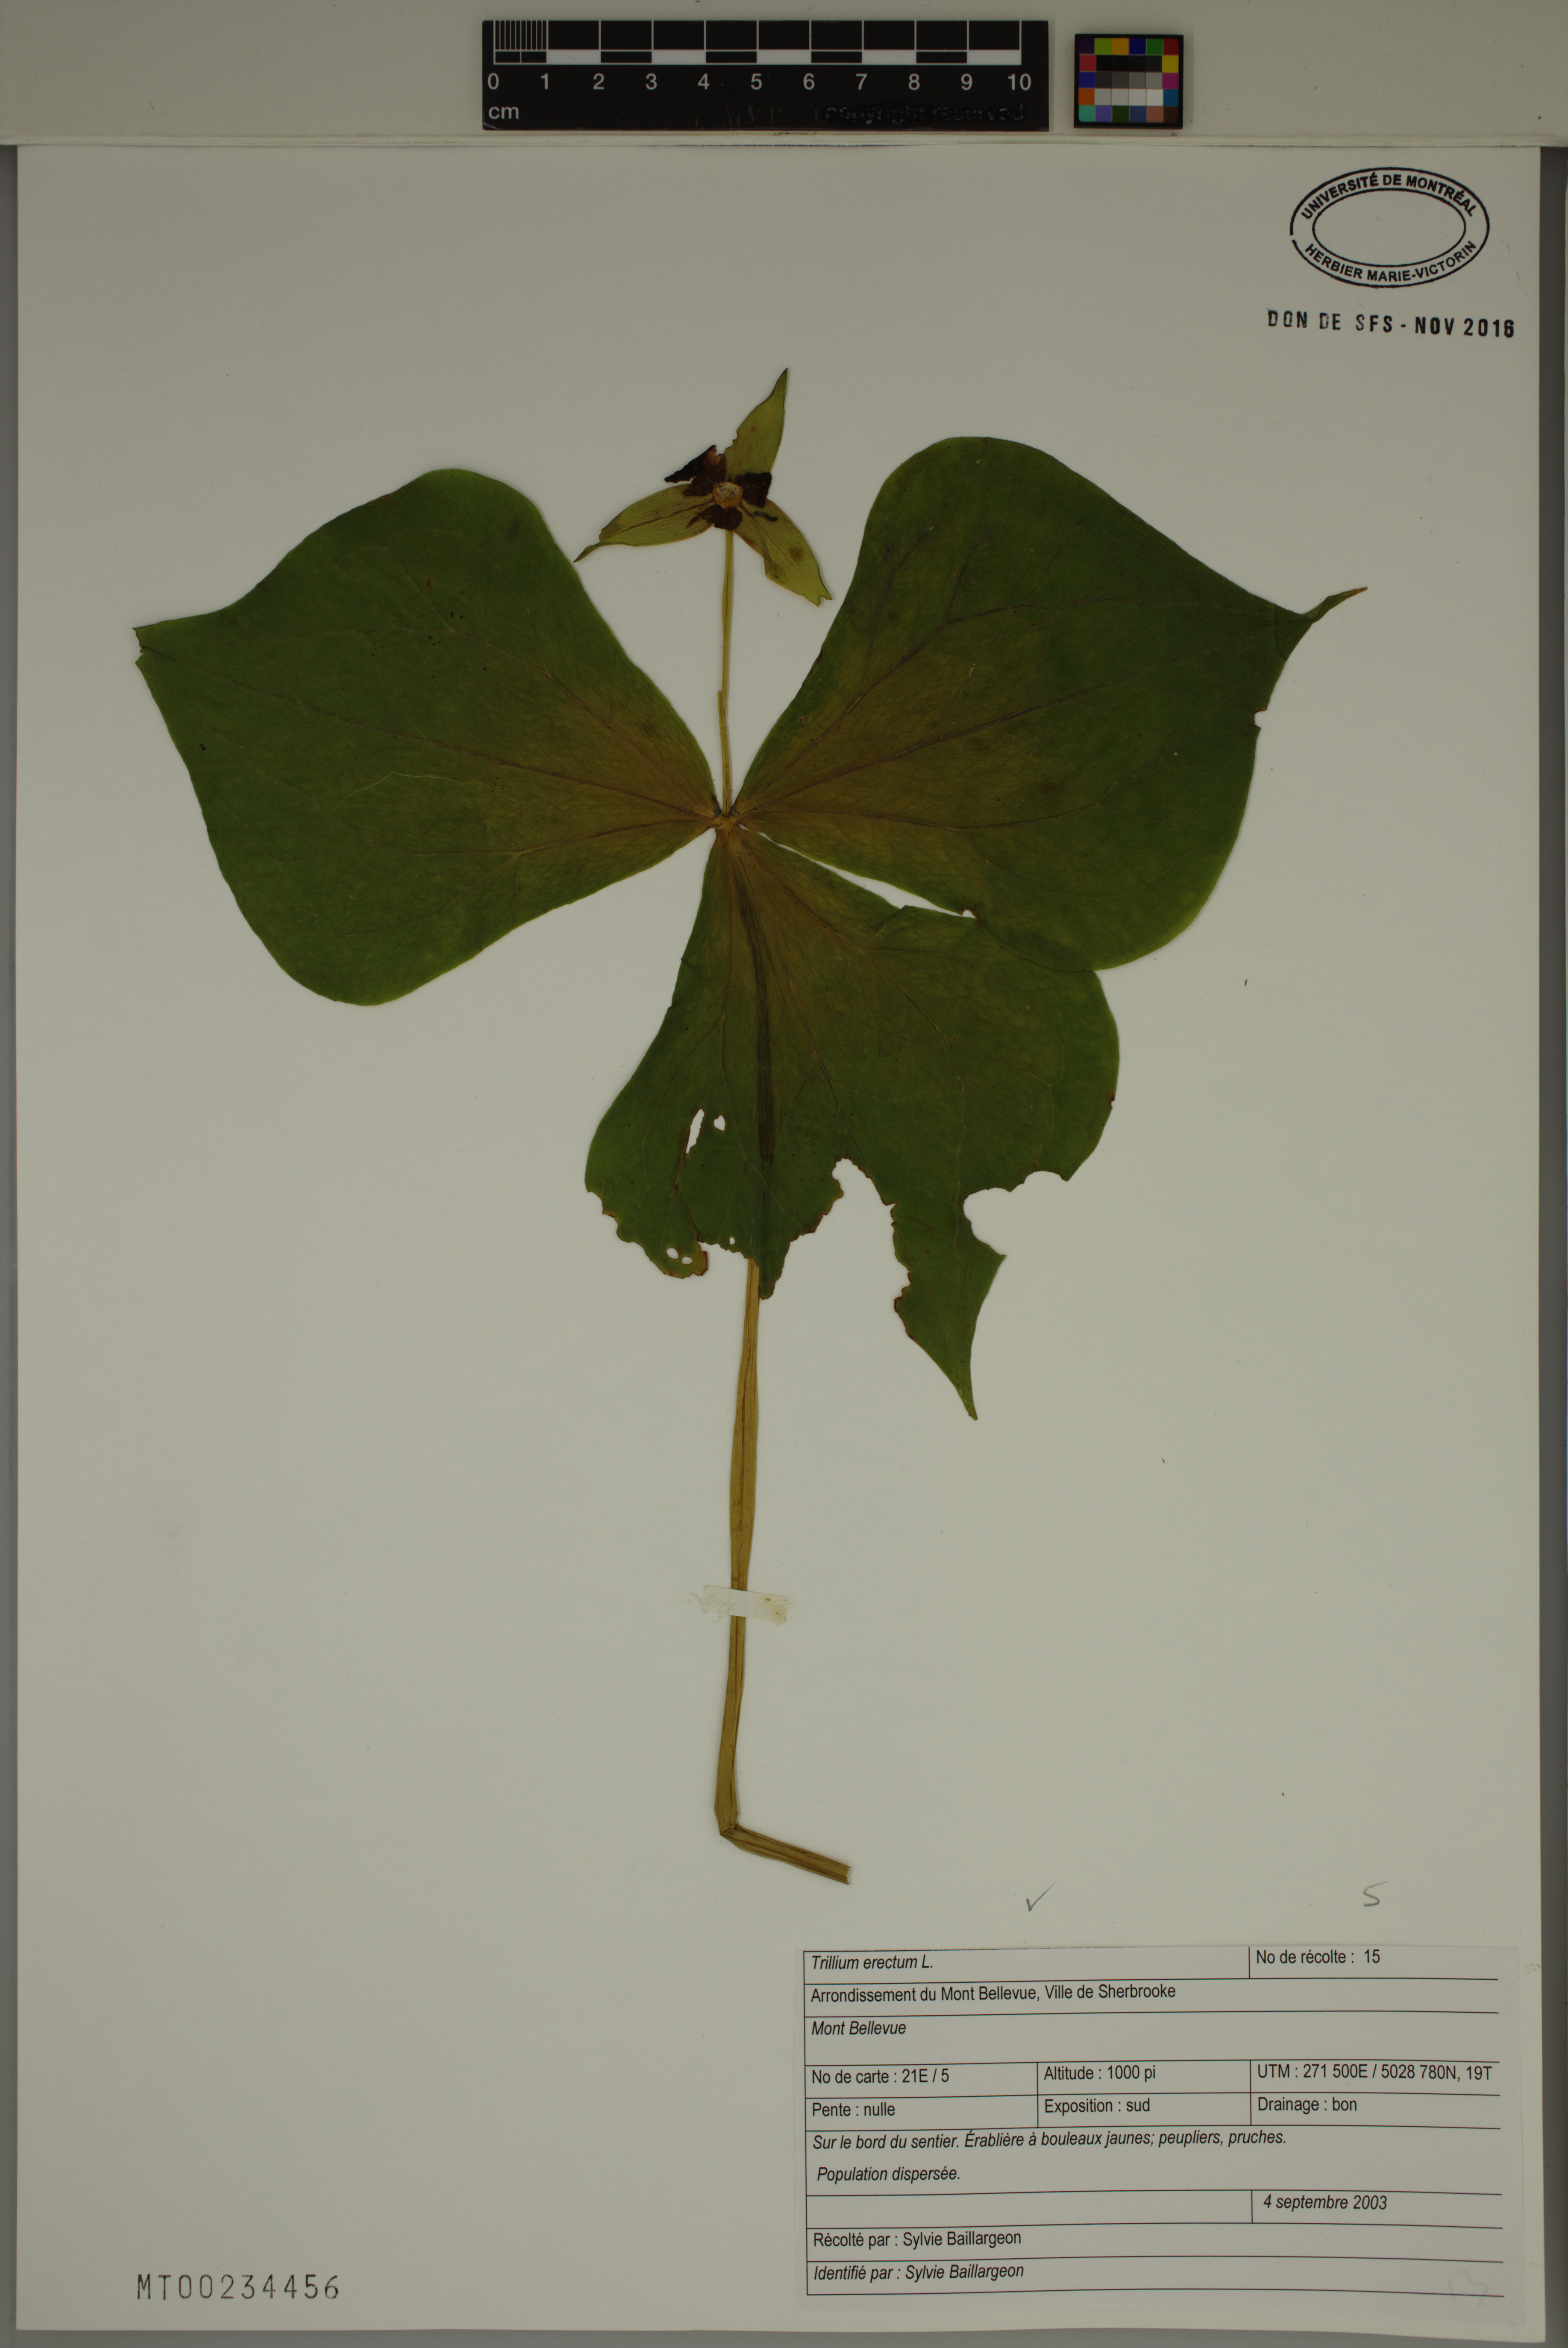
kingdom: Plantae
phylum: Tracheophyta
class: Liliopsida
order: Liliales
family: Melanthiaceae
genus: Trillium
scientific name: Trillium erectum
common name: Purple trillium
